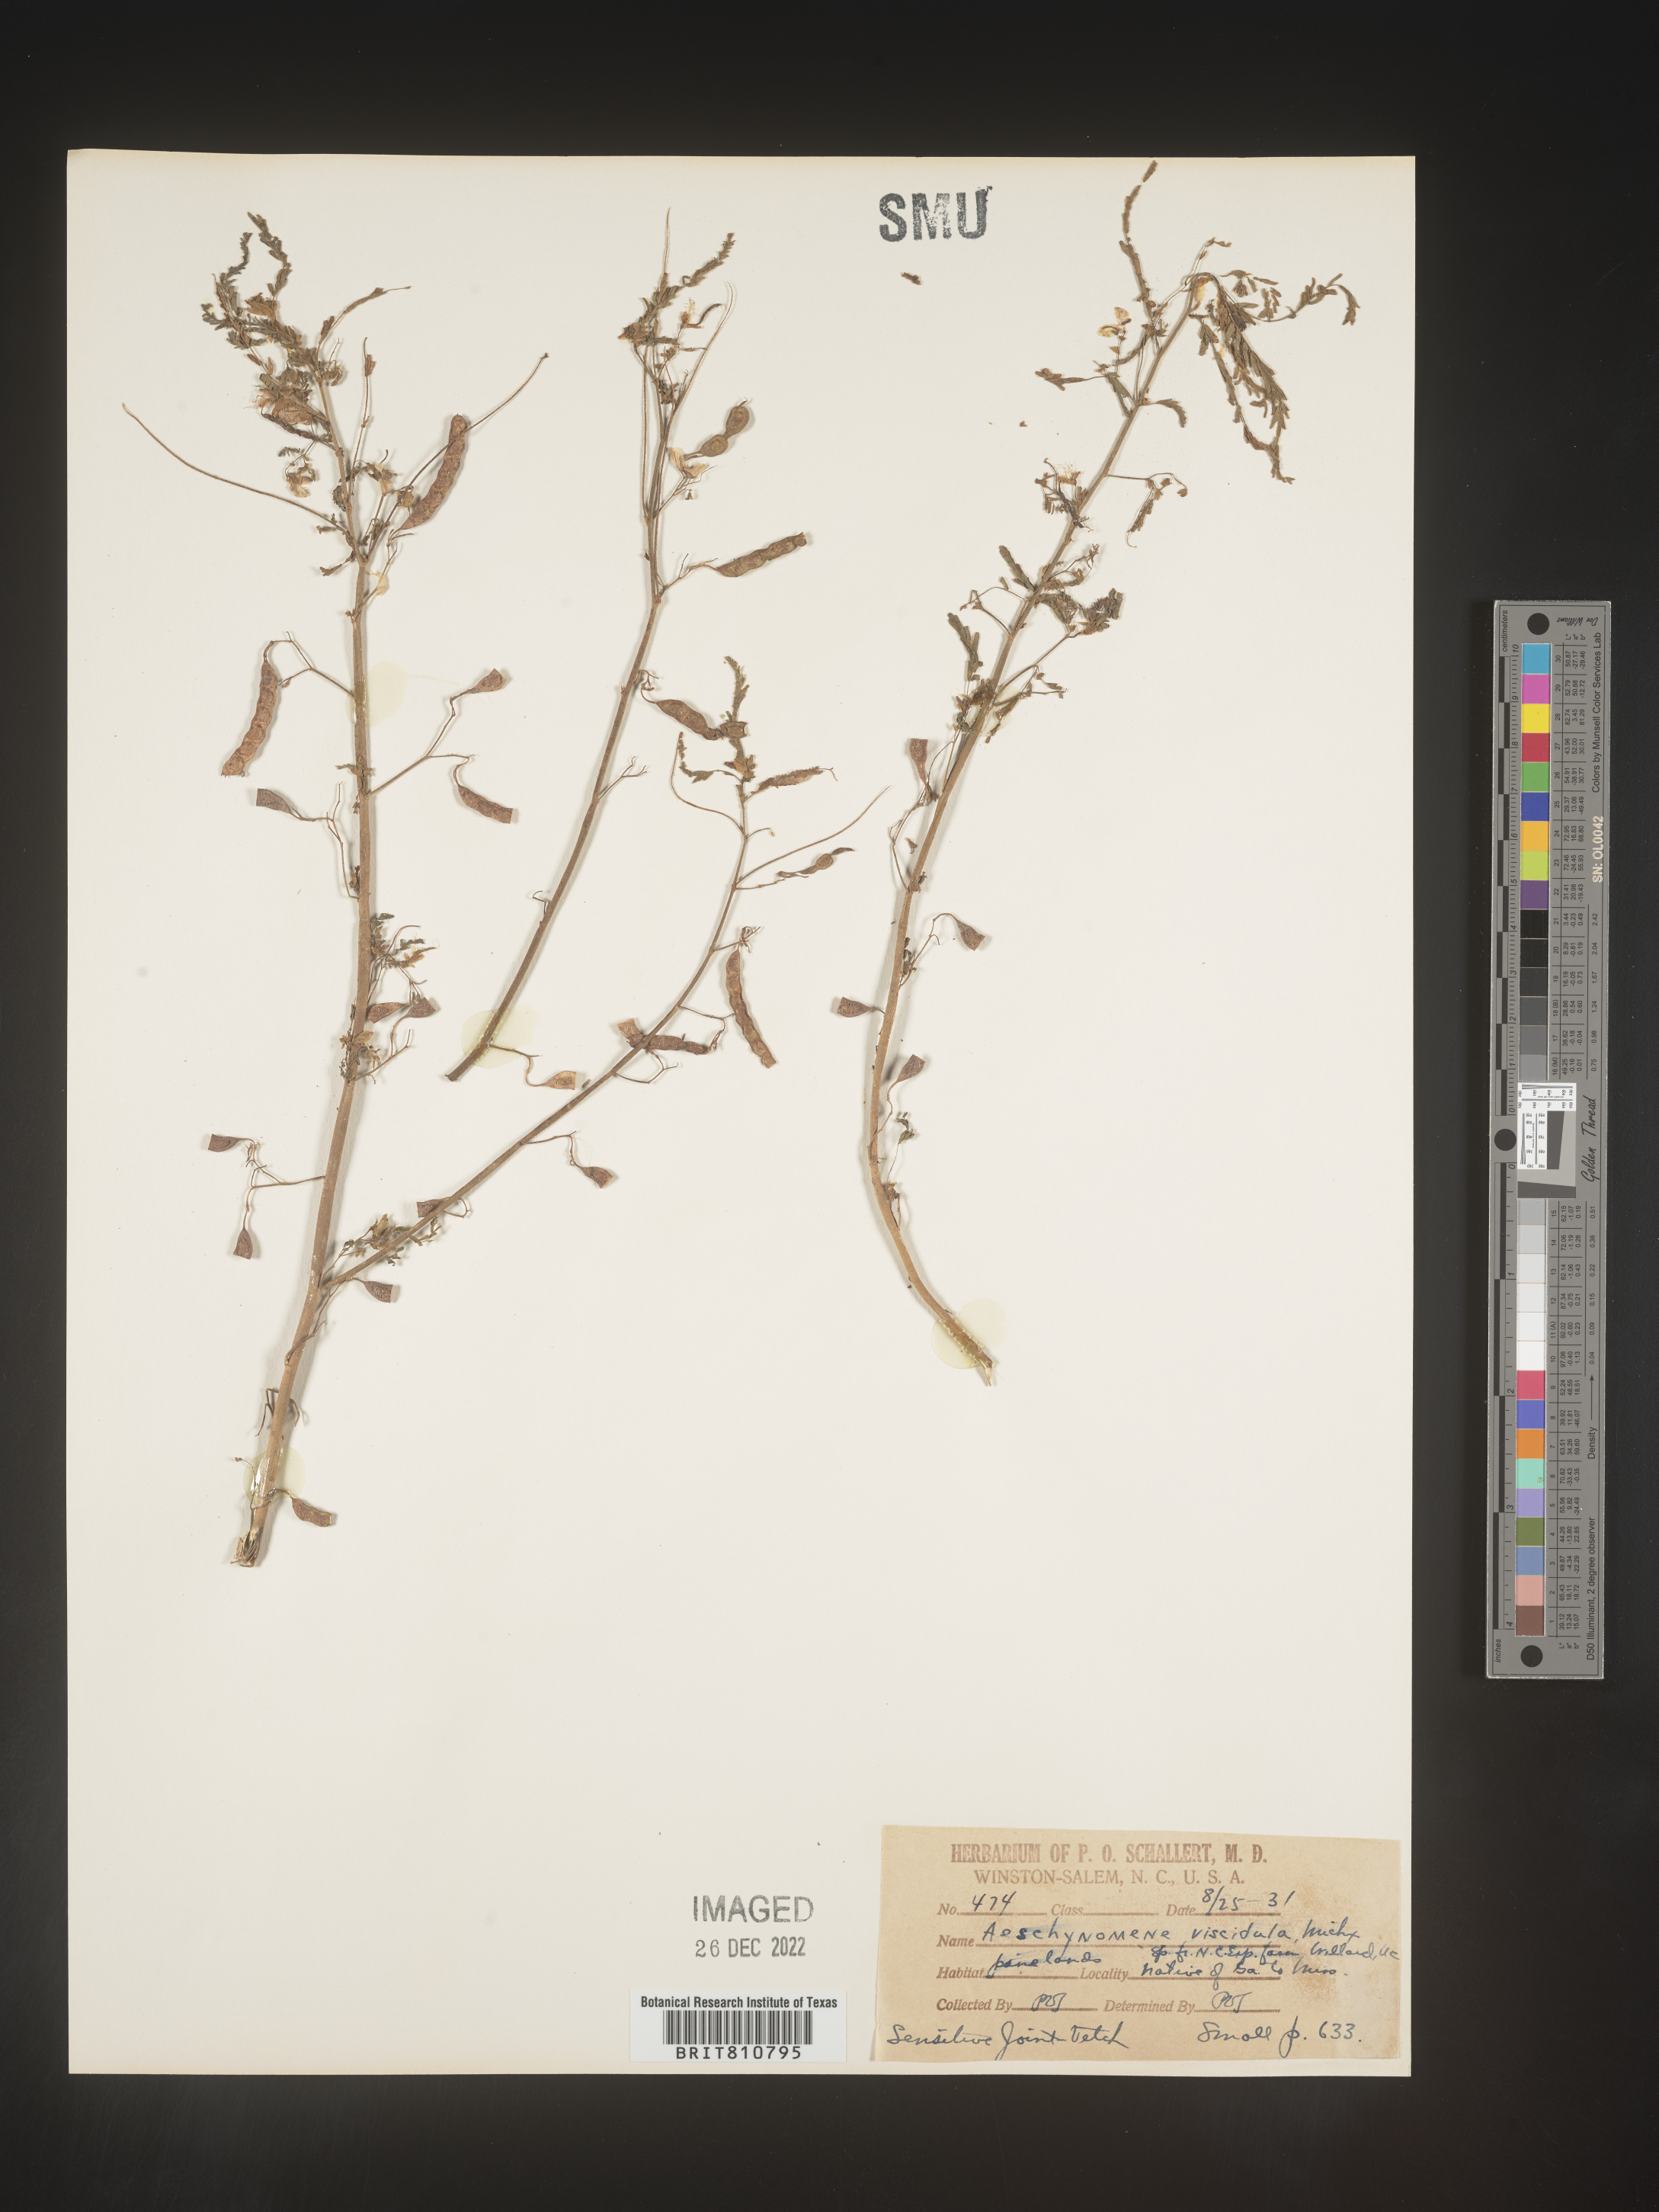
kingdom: Plantae
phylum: Tracheophyta
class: Magnoliopsida
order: Fabales
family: Fabaceae
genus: Aeschynomene
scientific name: Aeschynomene
